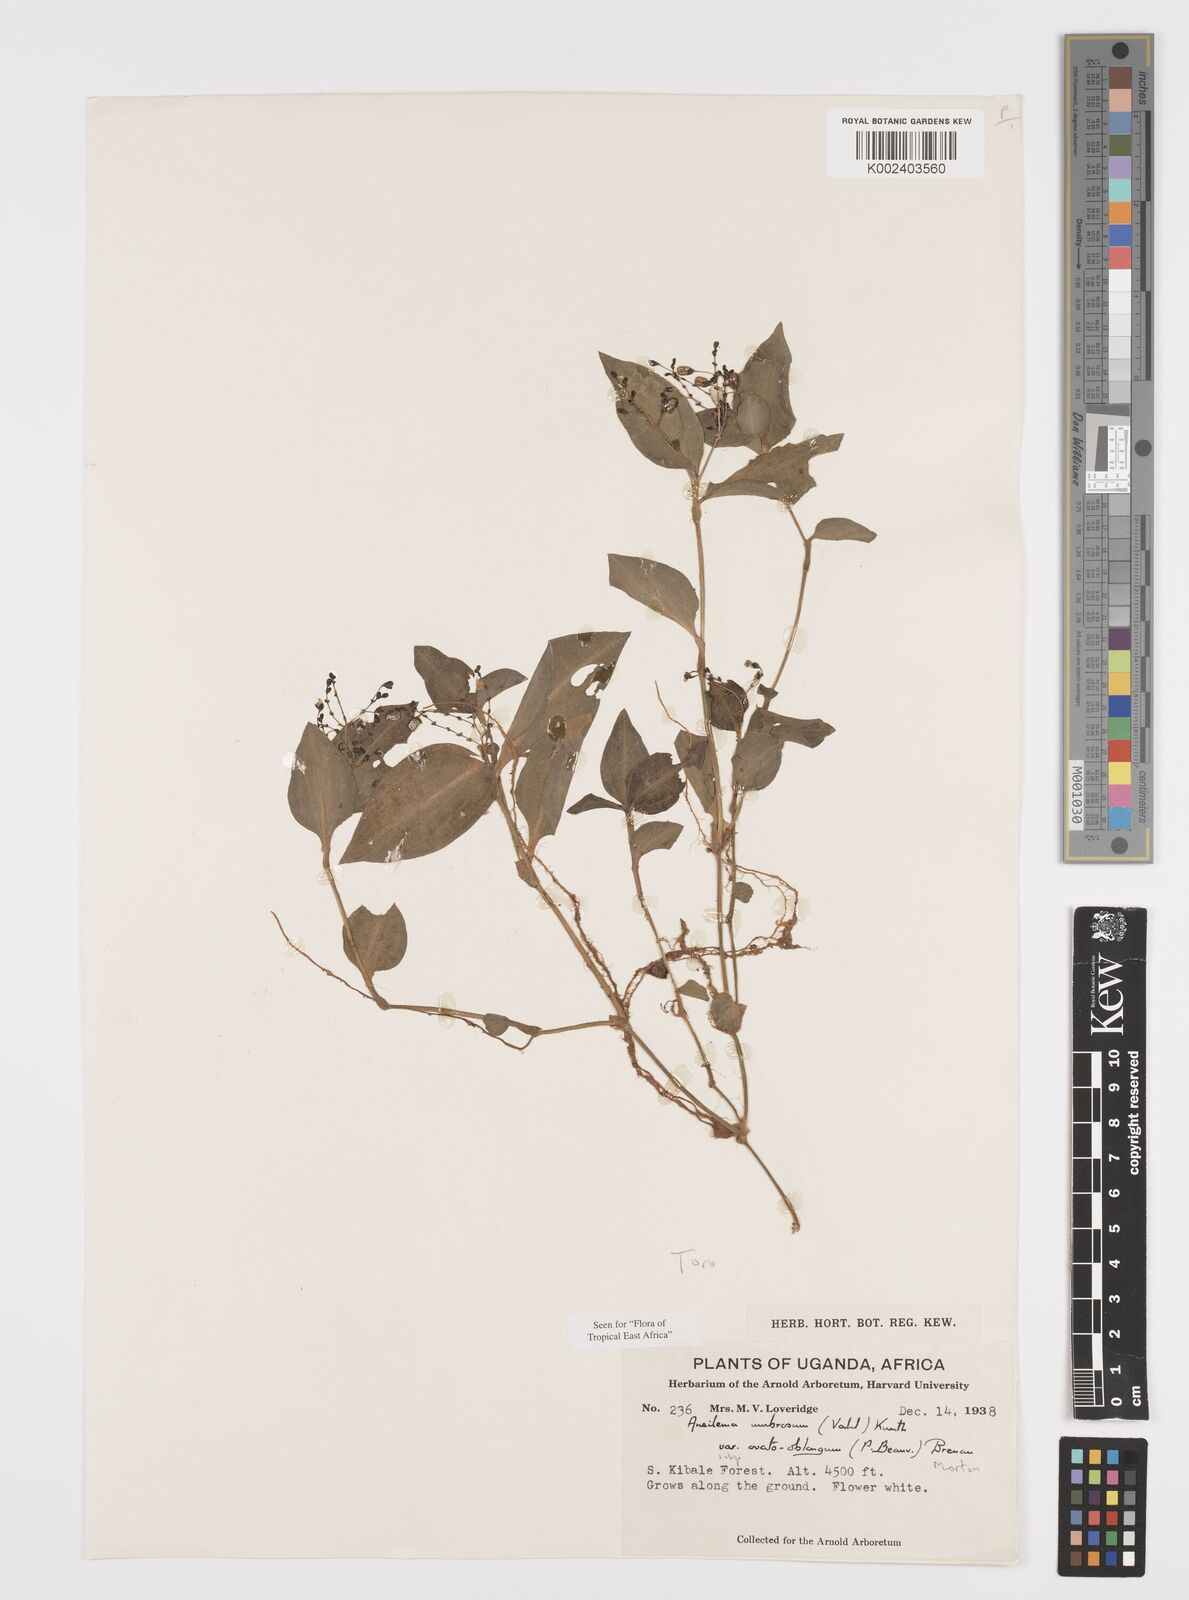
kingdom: Plantae
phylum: Tracheophyta
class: Liliopsida
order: Commelinales
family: Commelinaceae
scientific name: Commelinaceae
